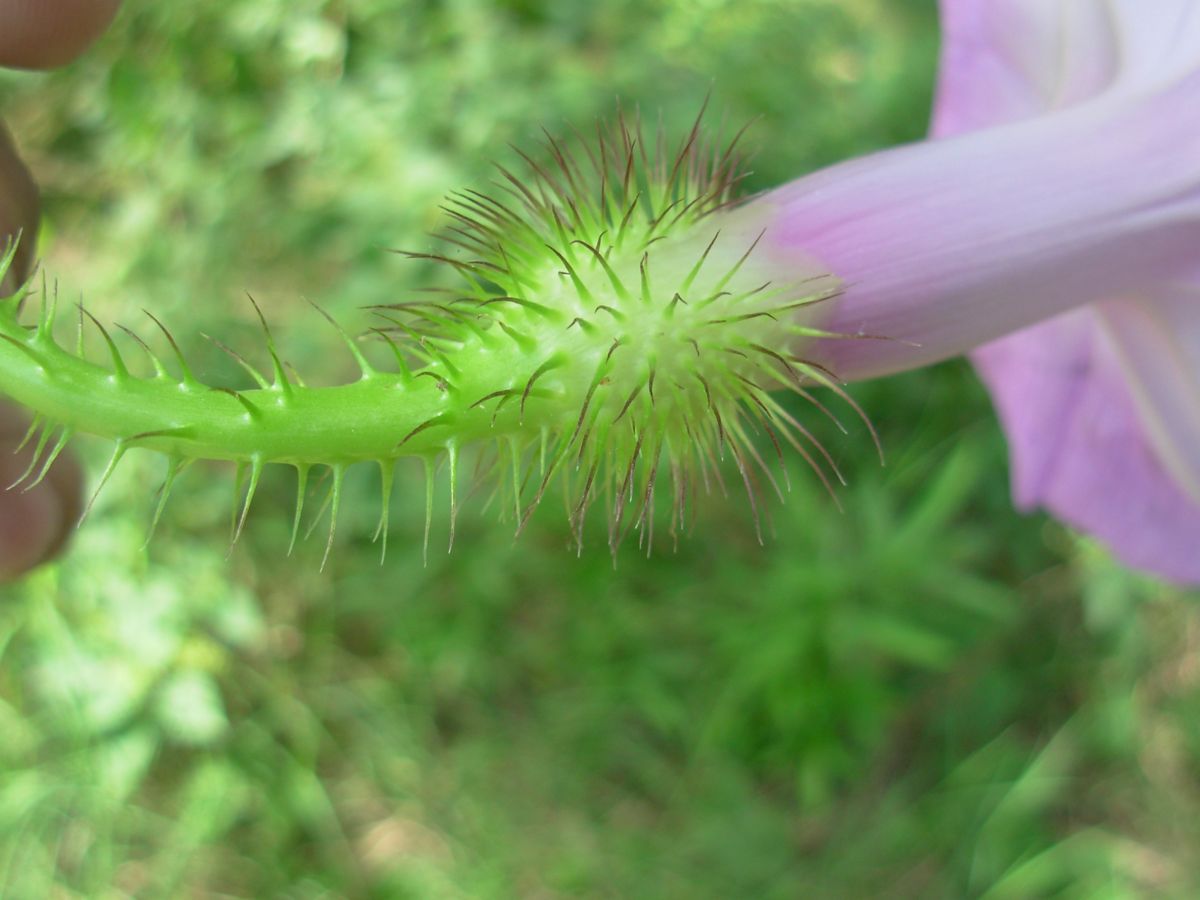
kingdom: Plantae
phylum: Tracheophyta
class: Magnoliopsida
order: Solanales
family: Convolvulaceae
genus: Ipomoea
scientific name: Ipomoea setosa
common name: Brazilian morning-glory
